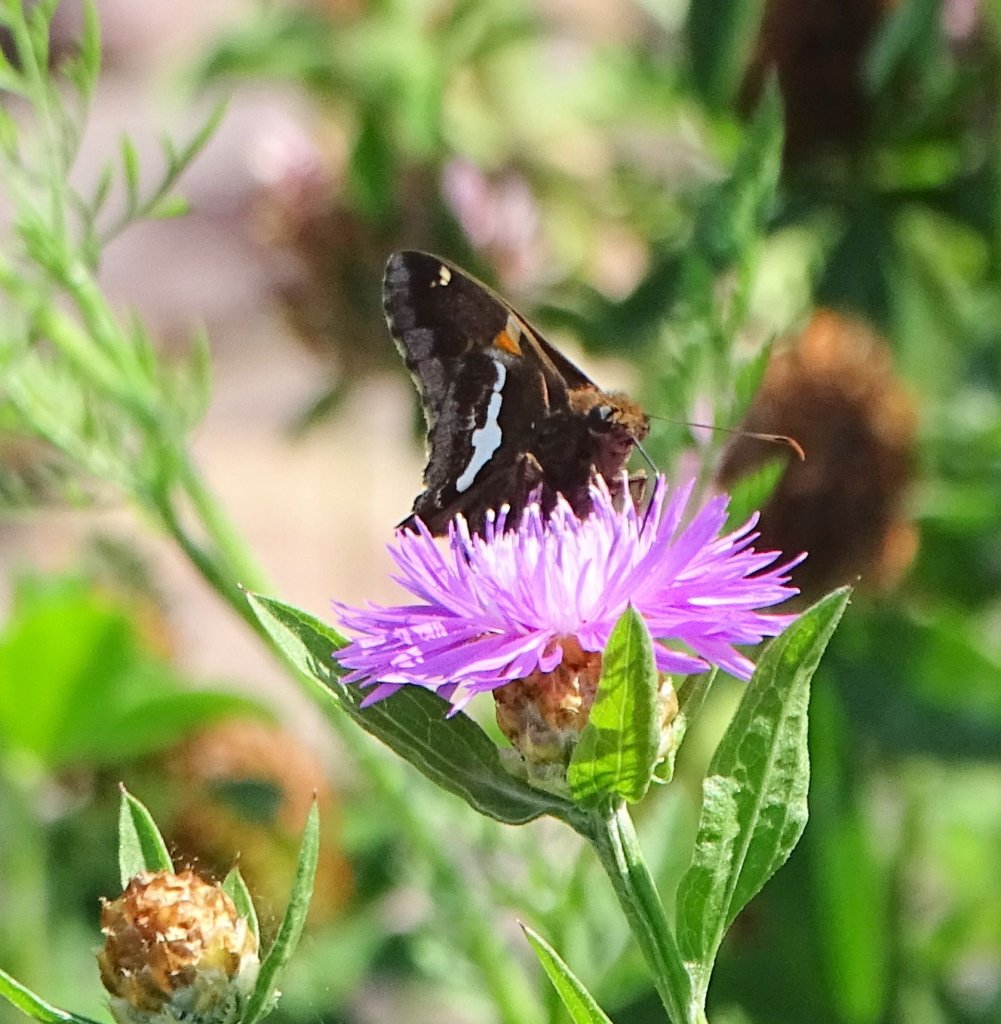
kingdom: Animalia
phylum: Arthropoda
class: Insecta
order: Lepidoptera
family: Hesperiidae
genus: Epargyreus
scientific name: Epargyreus clarus
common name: Silver-spotted Skipper
